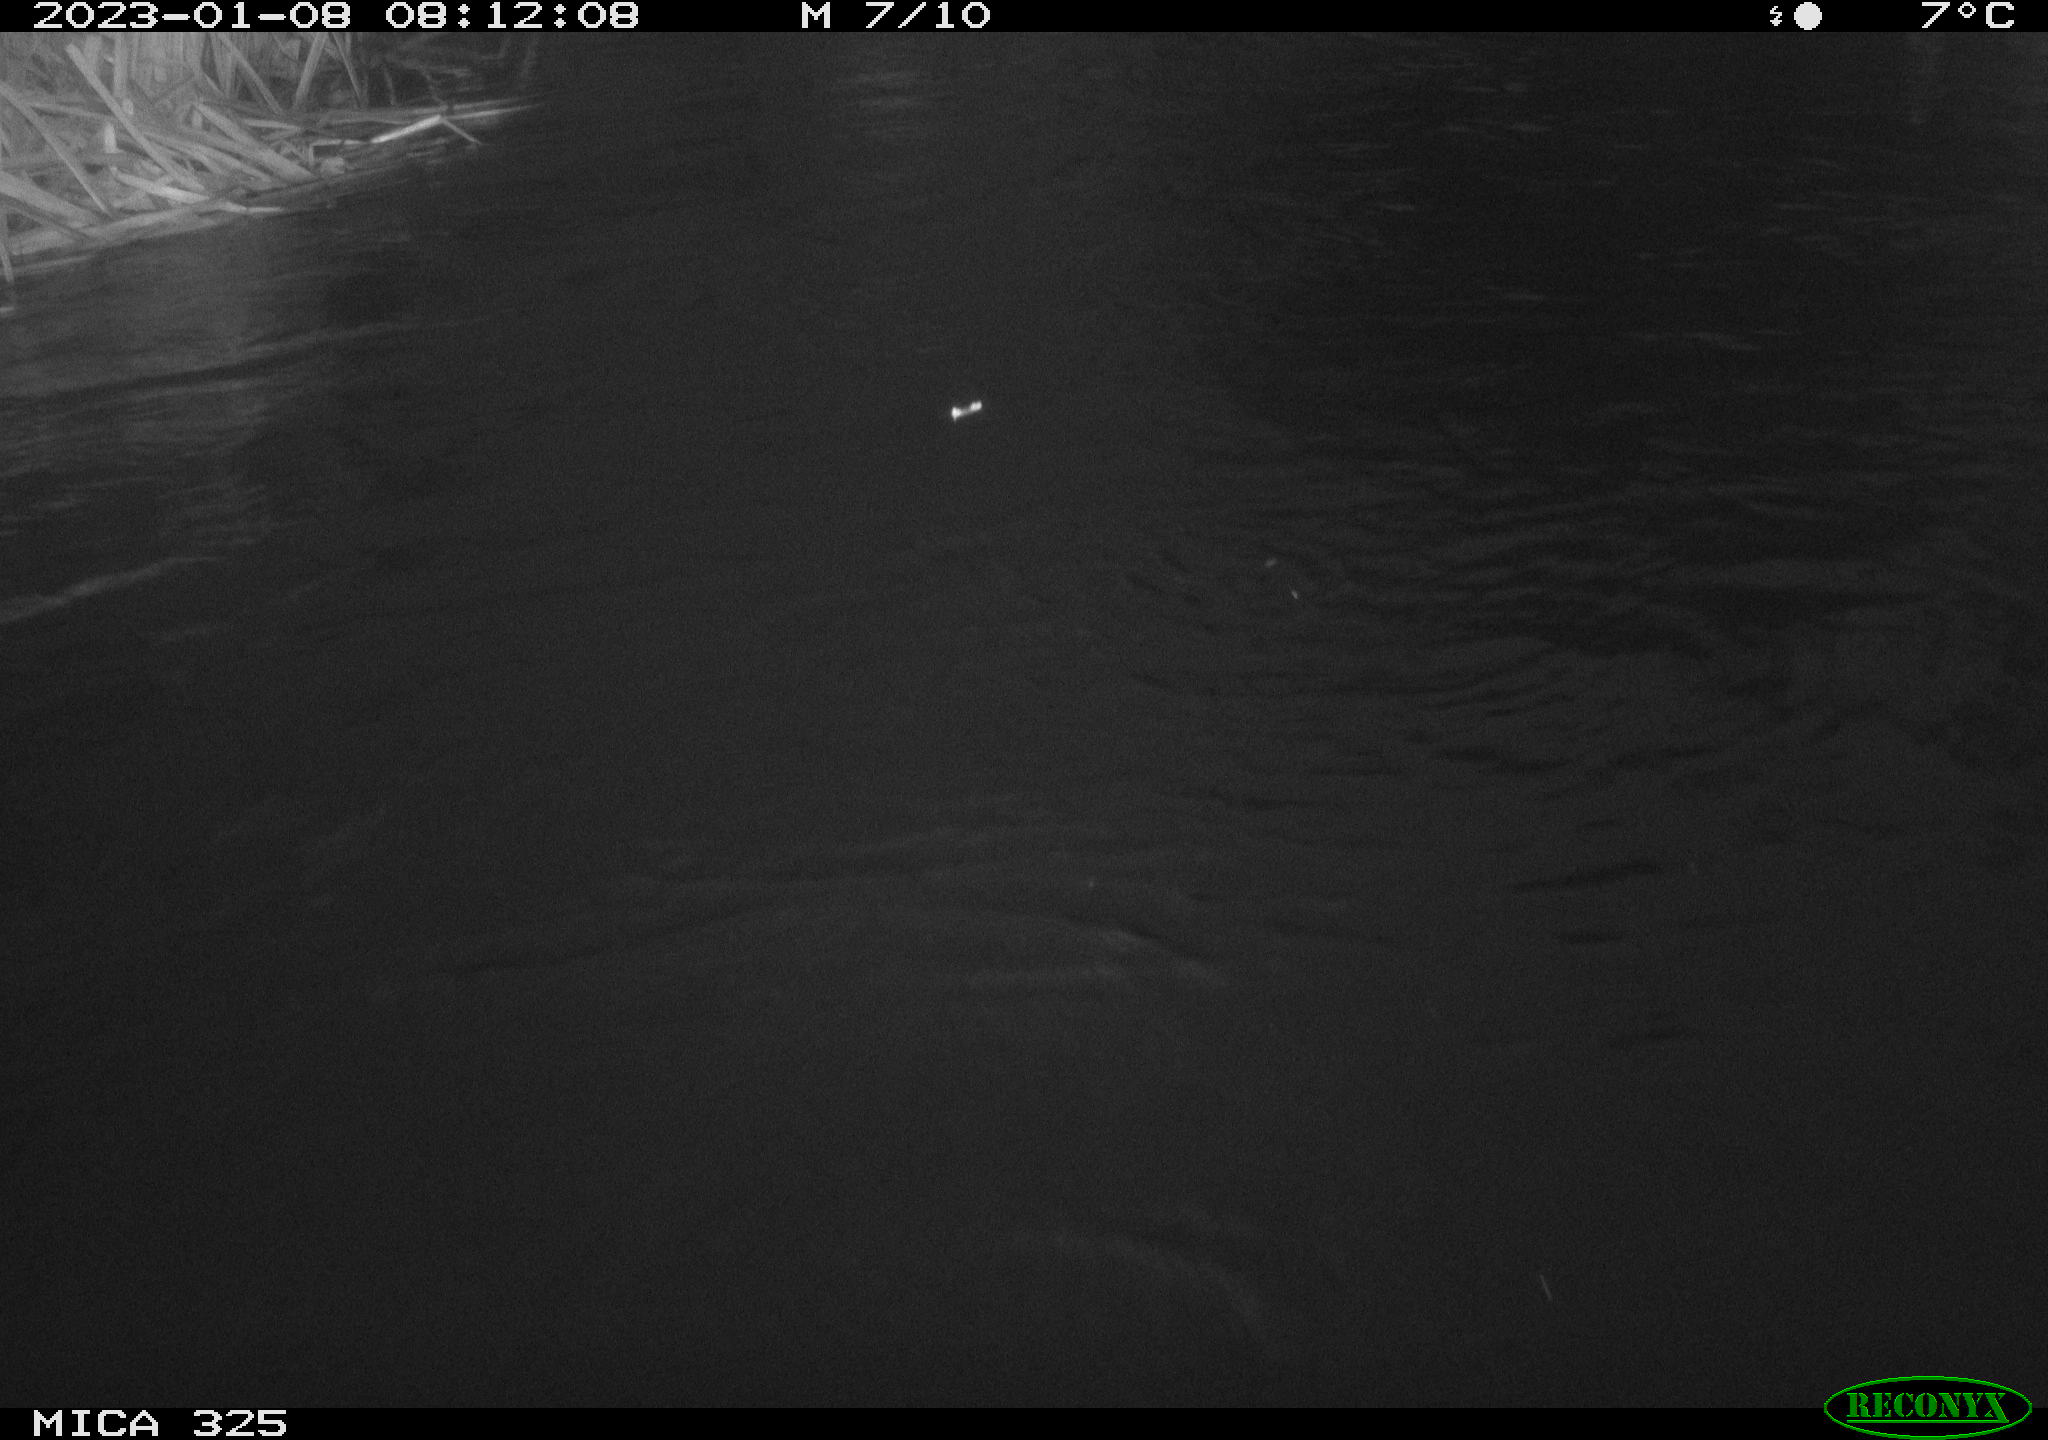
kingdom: Animalia
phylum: Chordata
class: Mammalia
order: Rodentia
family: Myocastoridae
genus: Myocastor
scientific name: Myocastor coypus
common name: Coypu
